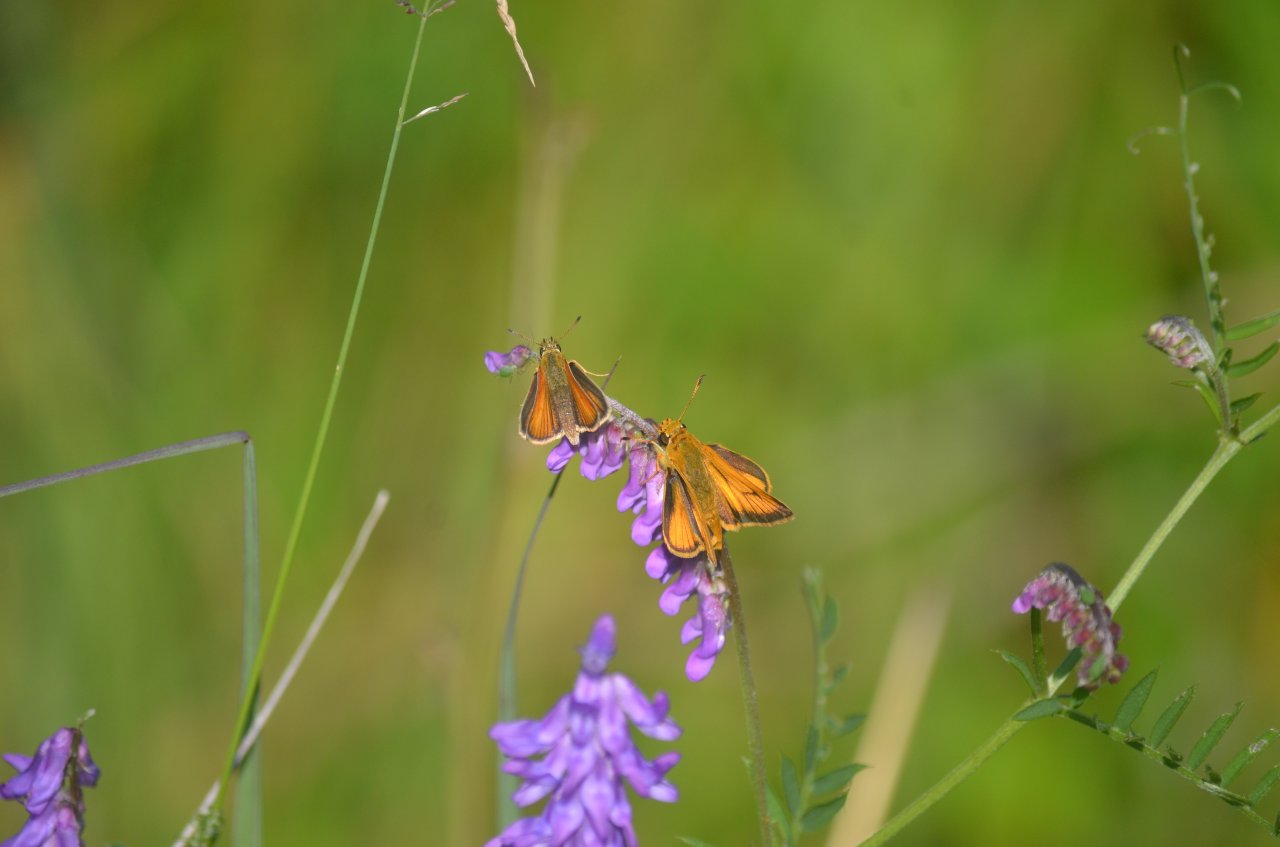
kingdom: Animalia
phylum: Arthropoda
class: Insecta
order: Lepidoptera
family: Hesperiidae
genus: Thymelicus
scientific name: Thymelicus lineola
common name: European Skipper
